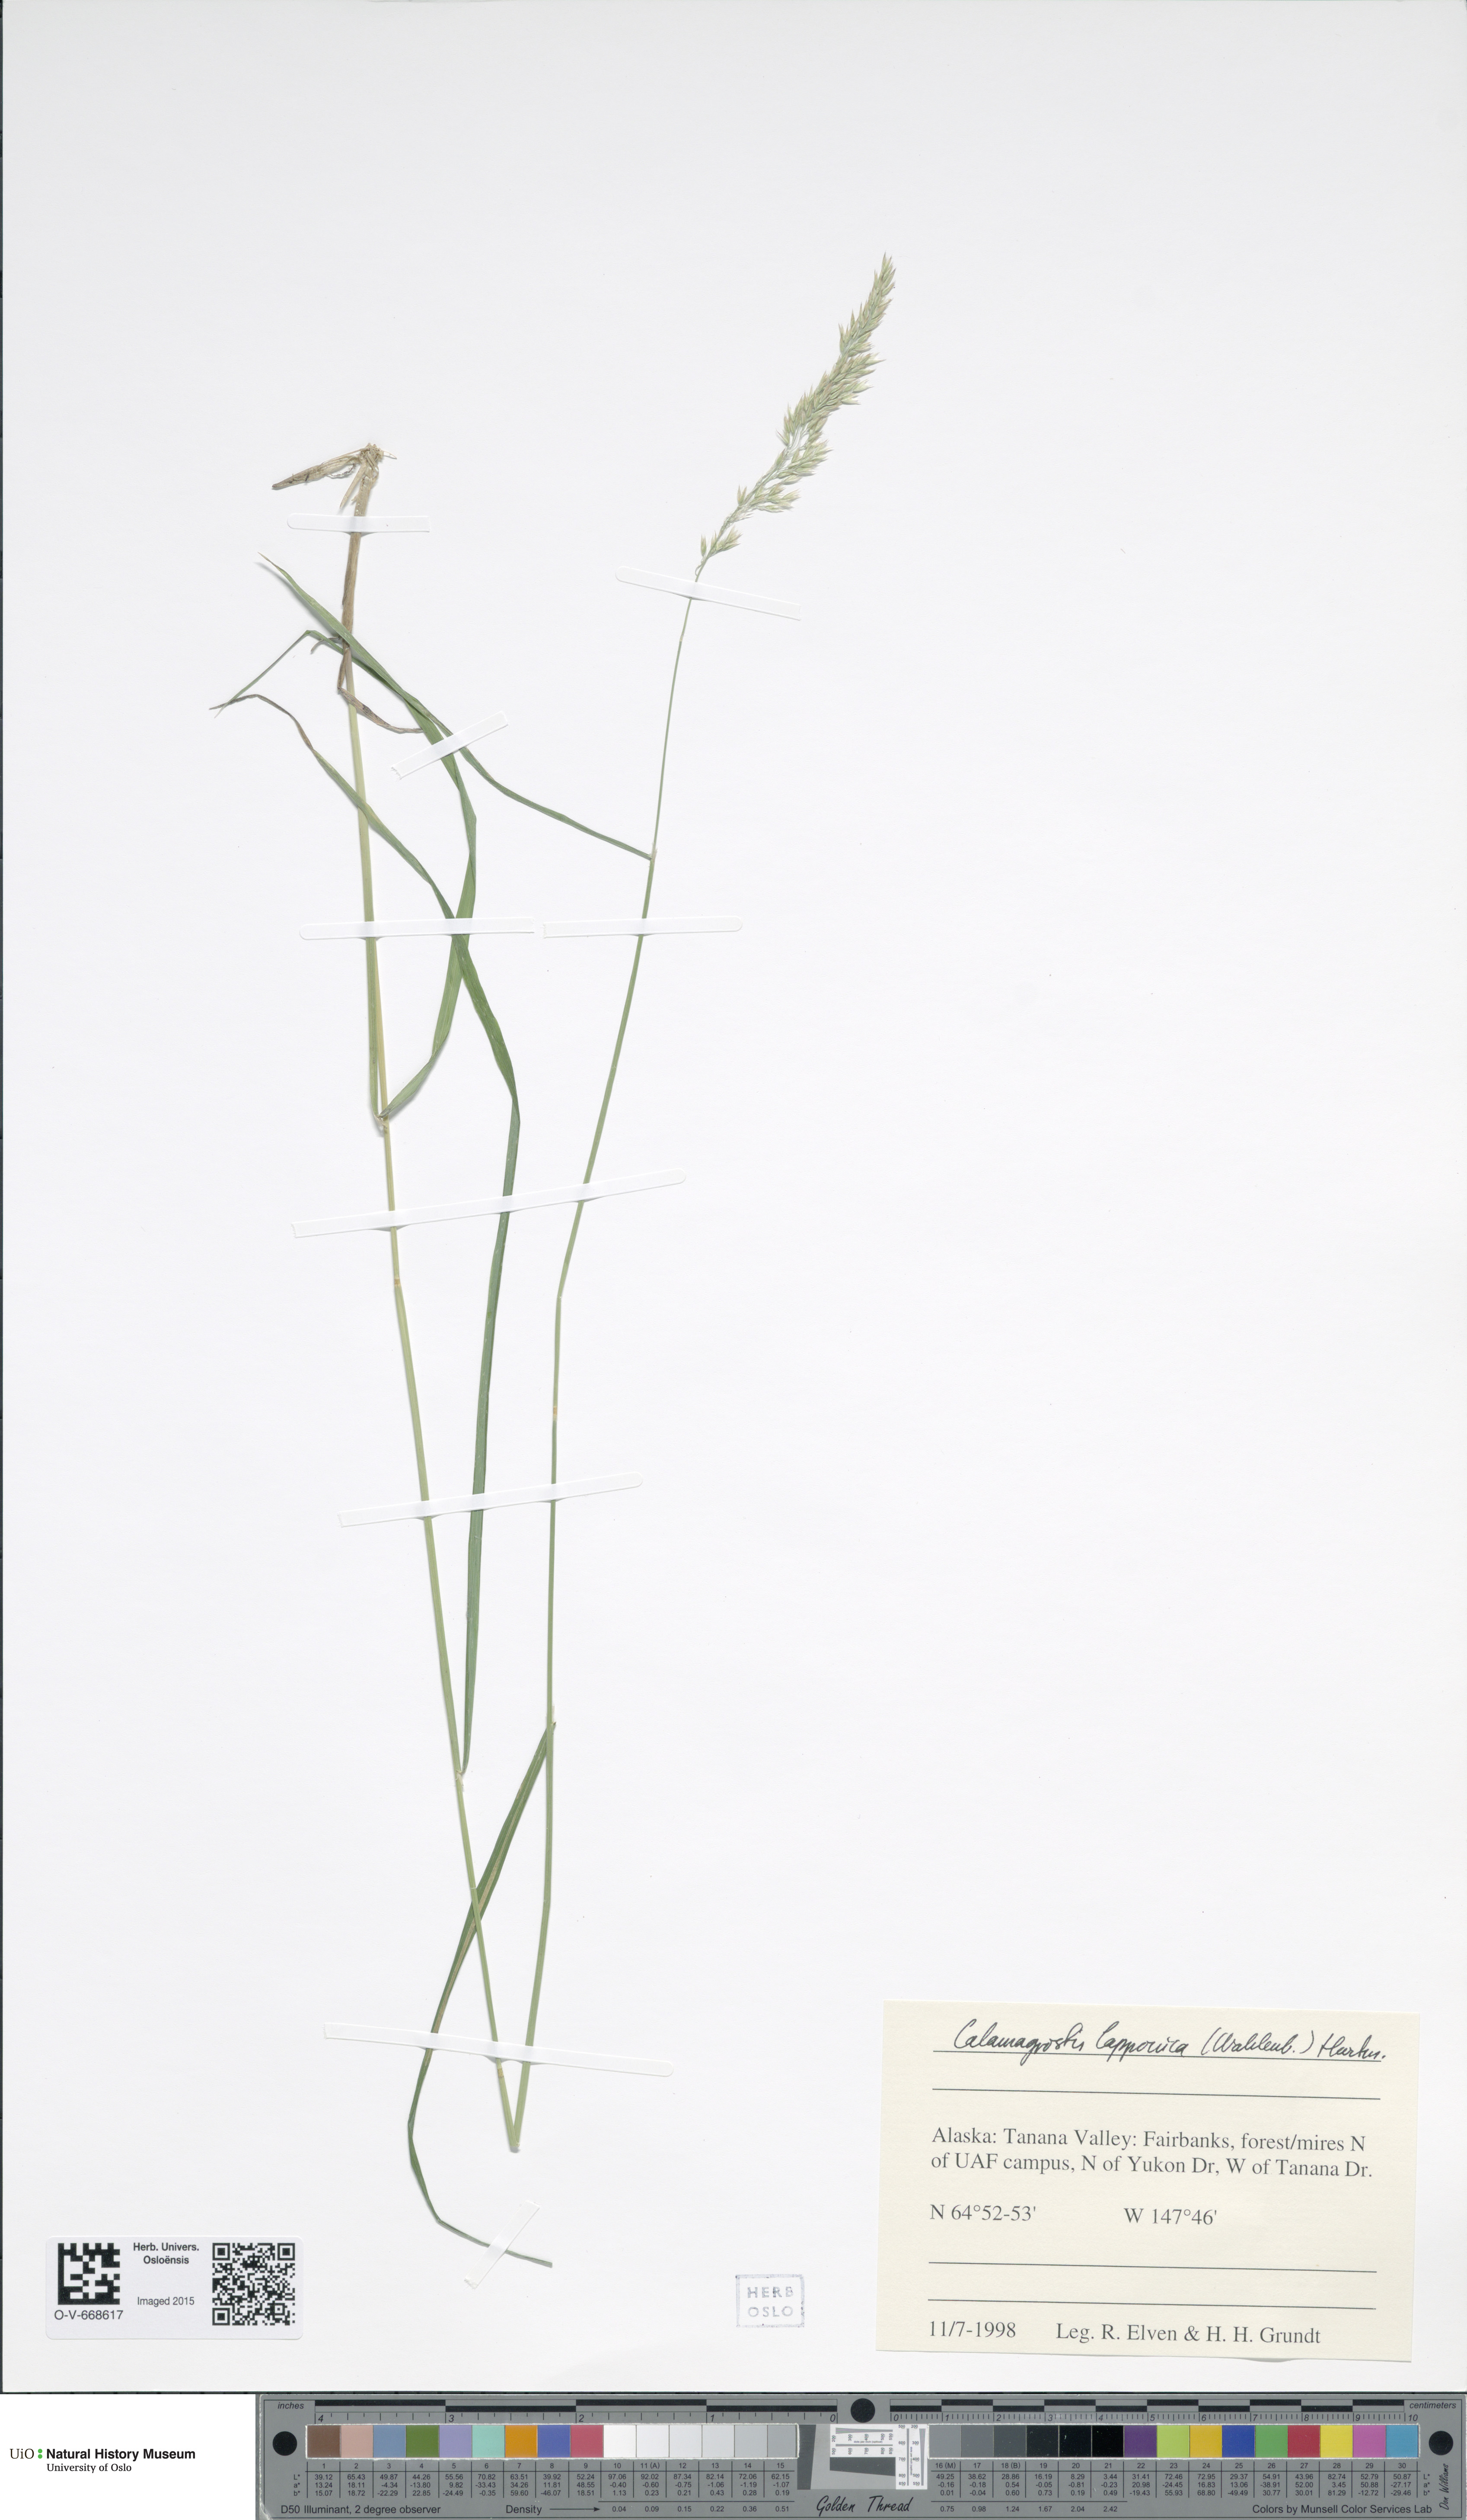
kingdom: Plantae
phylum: Tracheophyta
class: Liliopsida
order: Poales
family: Poaceae
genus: Calamagrostis
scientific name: Calamagrostis lapponica
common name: Lapland reedgrass
